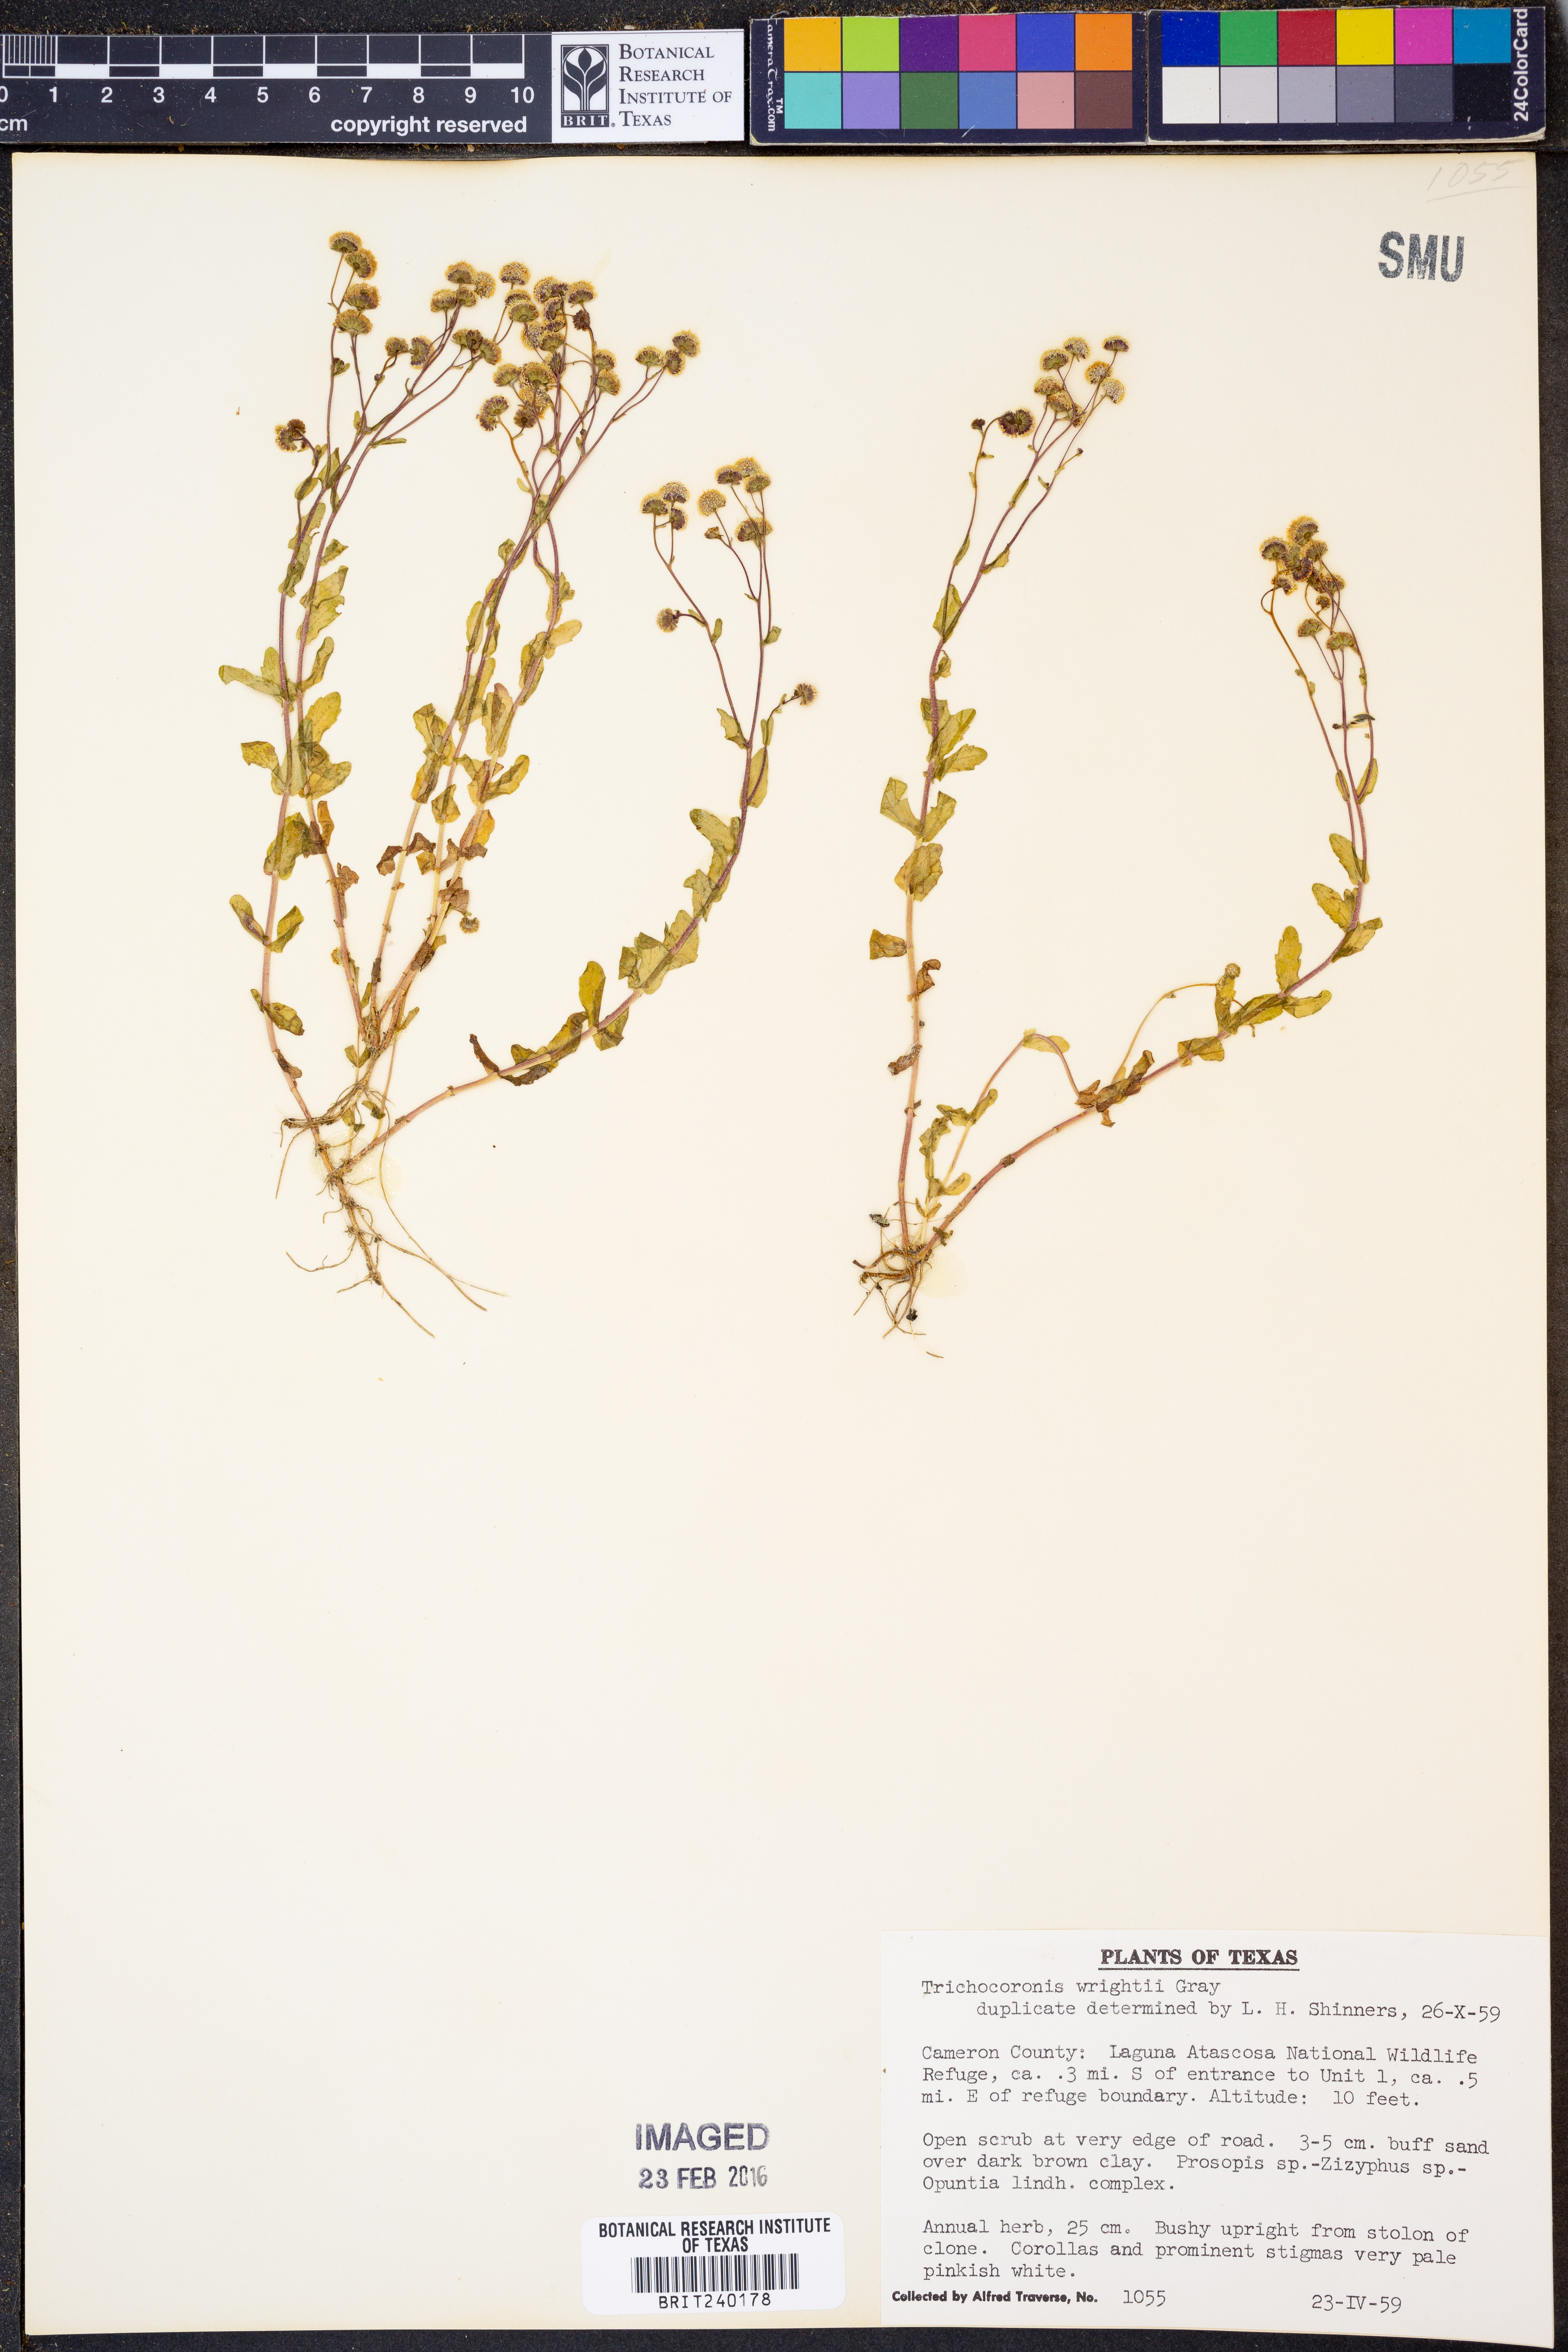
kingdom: Plantae
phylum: Tracheophyta
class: Magnoliopsida
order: Asterales
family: Asteraceae
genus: Trichocoronis
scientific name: Trichocoronis wrightii
